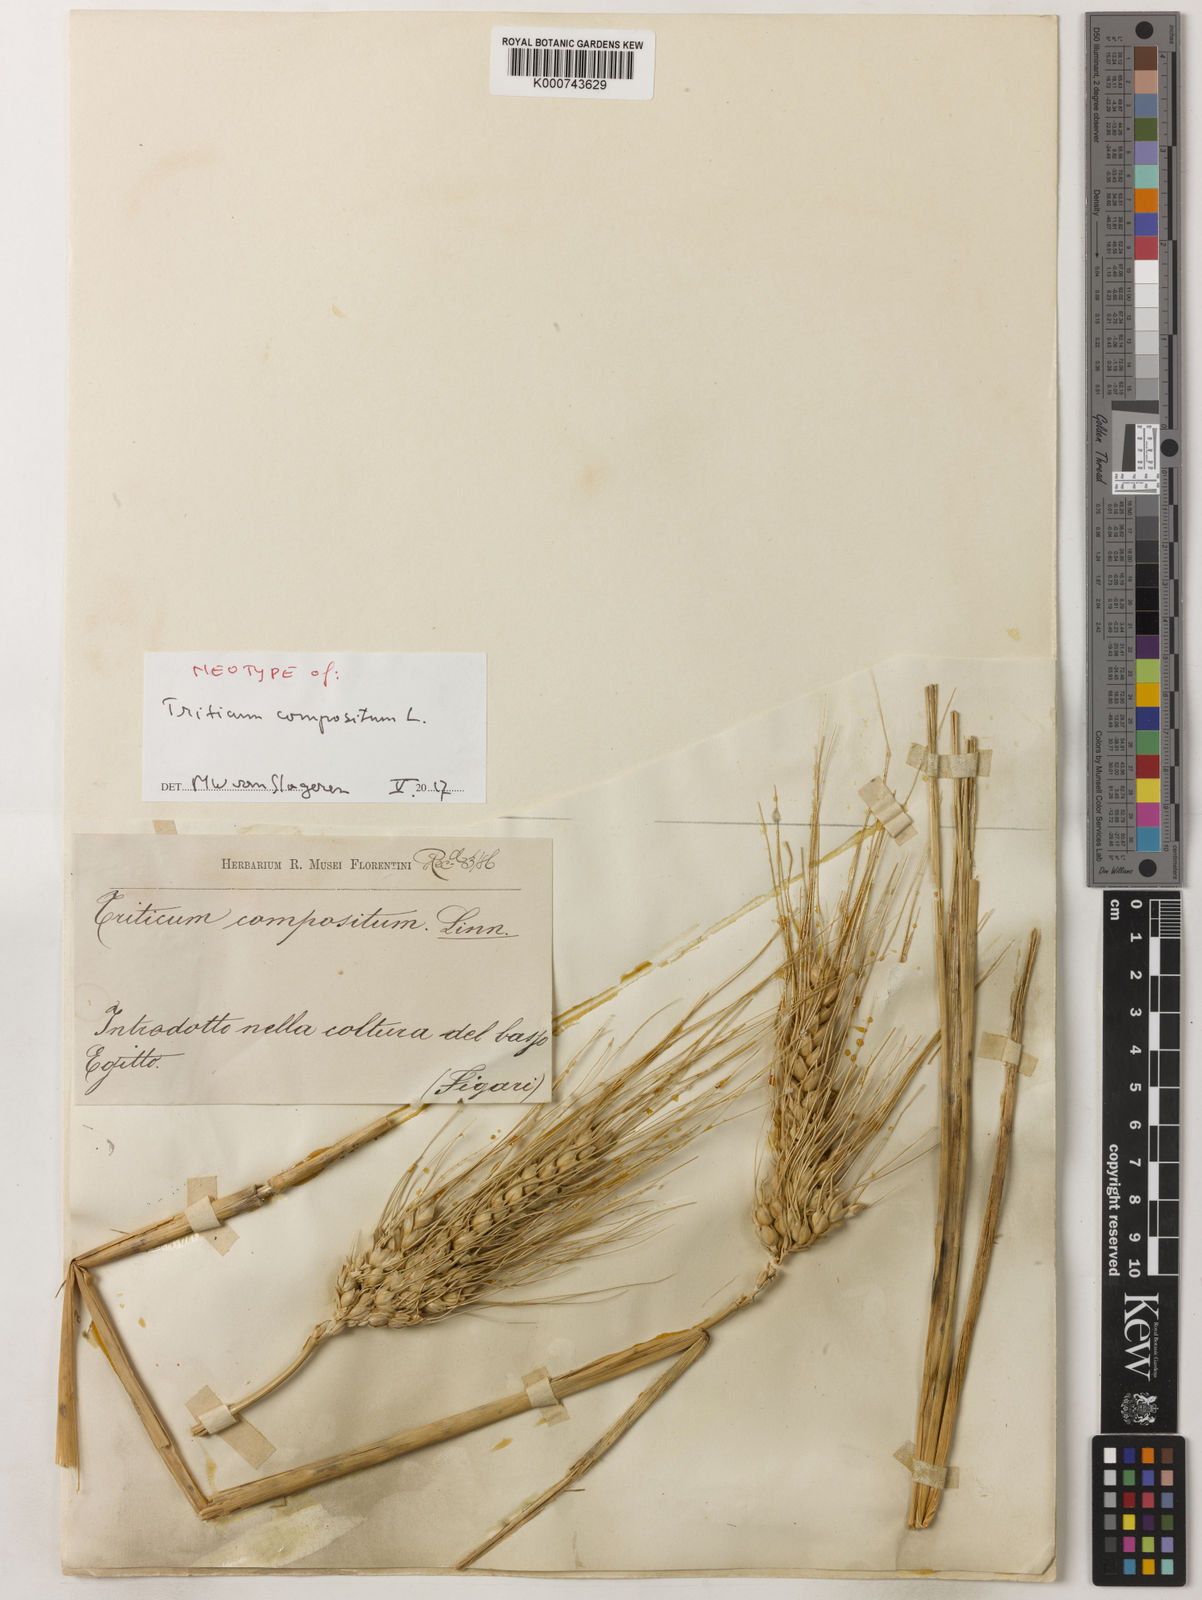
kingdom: Plantae
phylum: Tracheophyta
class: Liliopsida
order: Poales
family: Poaceae
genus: Triticum
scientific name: Triticum turgidum
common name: Rivet wheat
